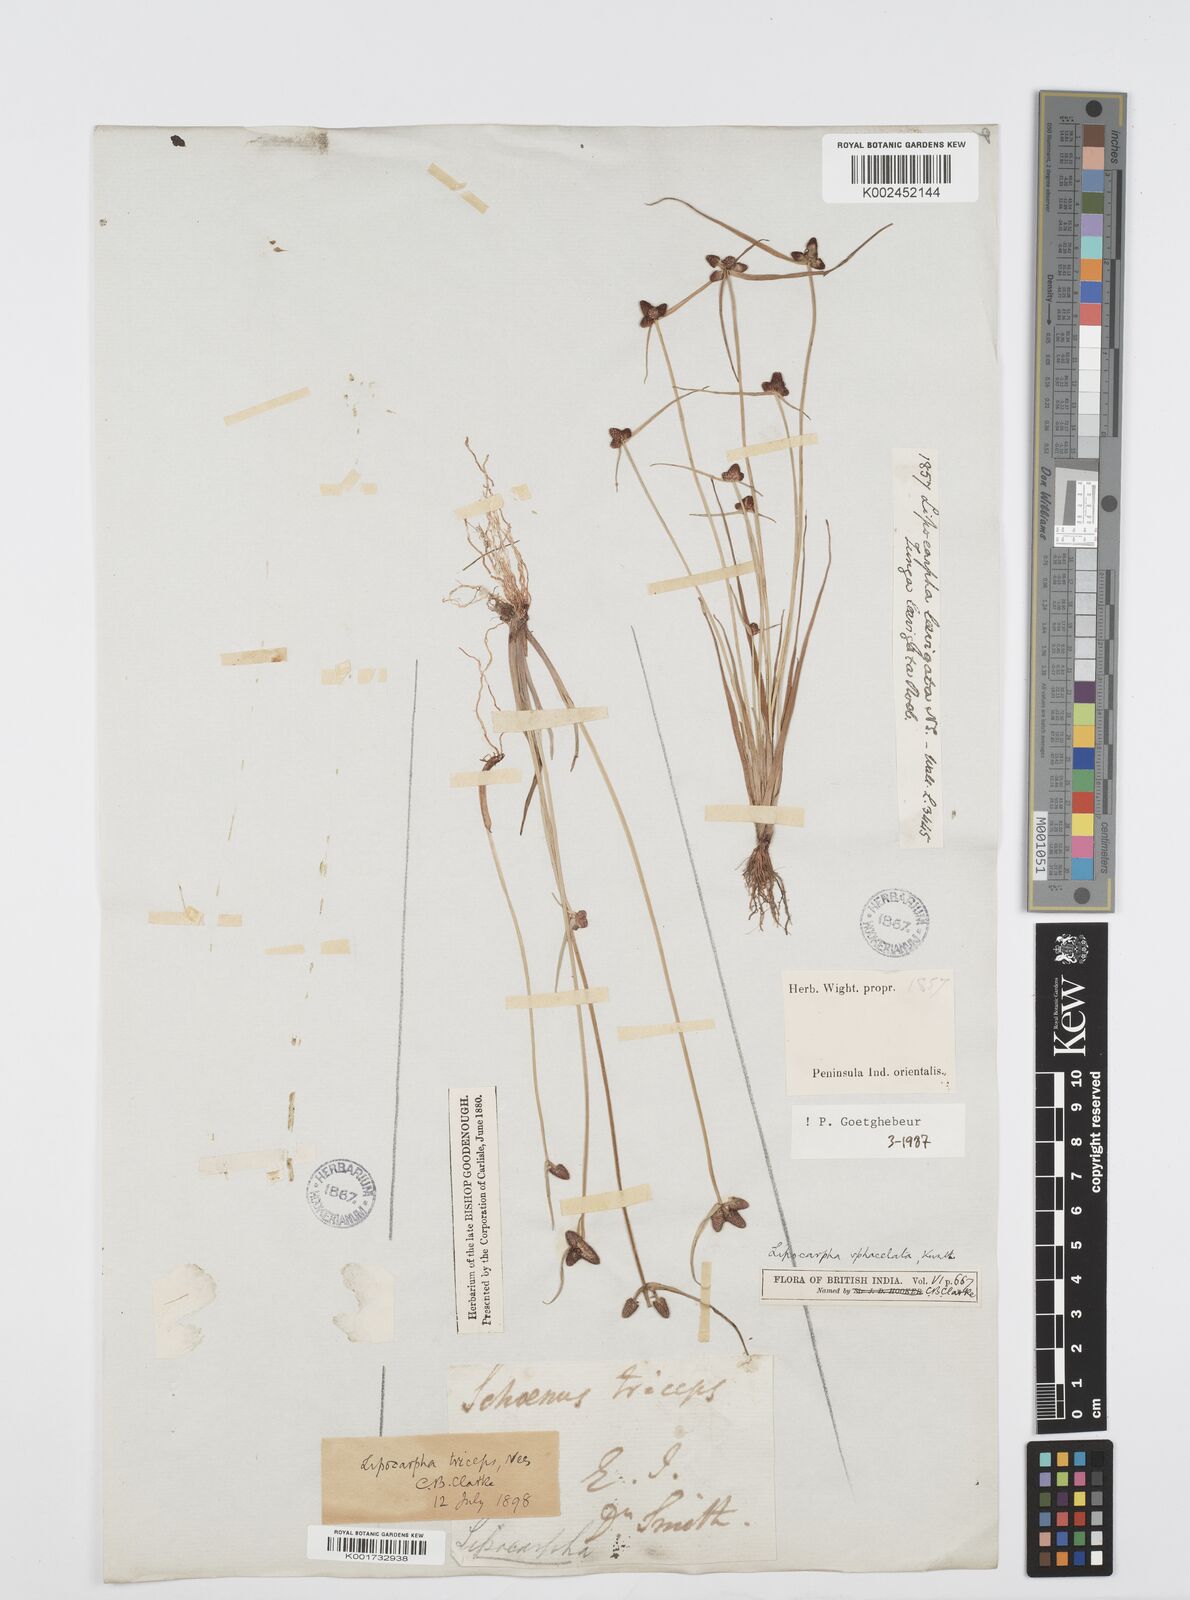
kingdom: Plantae
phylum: Tracheophyta
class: Liliopsida
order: Poales
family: Cyperaceae
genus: Cyperus
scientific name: Cyperus sphacelatus
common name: Roadside flatsedge
